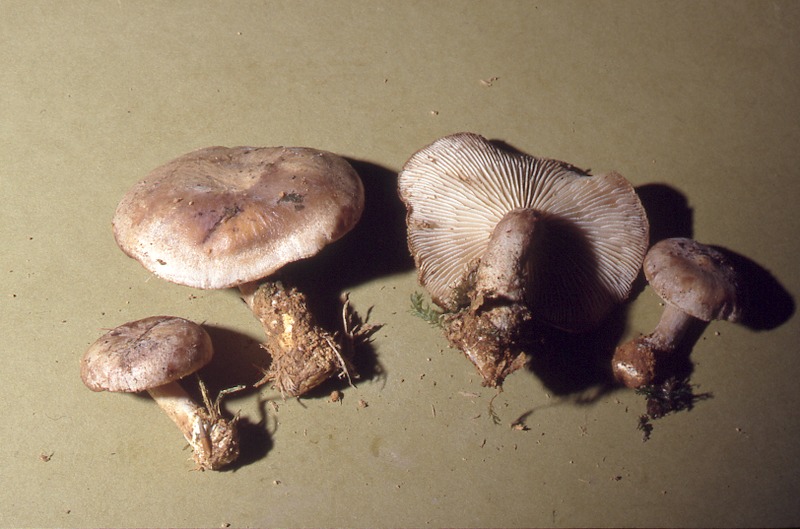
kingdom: Fungi
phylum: Basidiomycota
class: Agaricomycetes
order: Gloeophyllales
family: Gloeophyllaceae
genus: Neolentinus
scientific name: Neolentinus adhaerens
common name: Sticky sawgill
